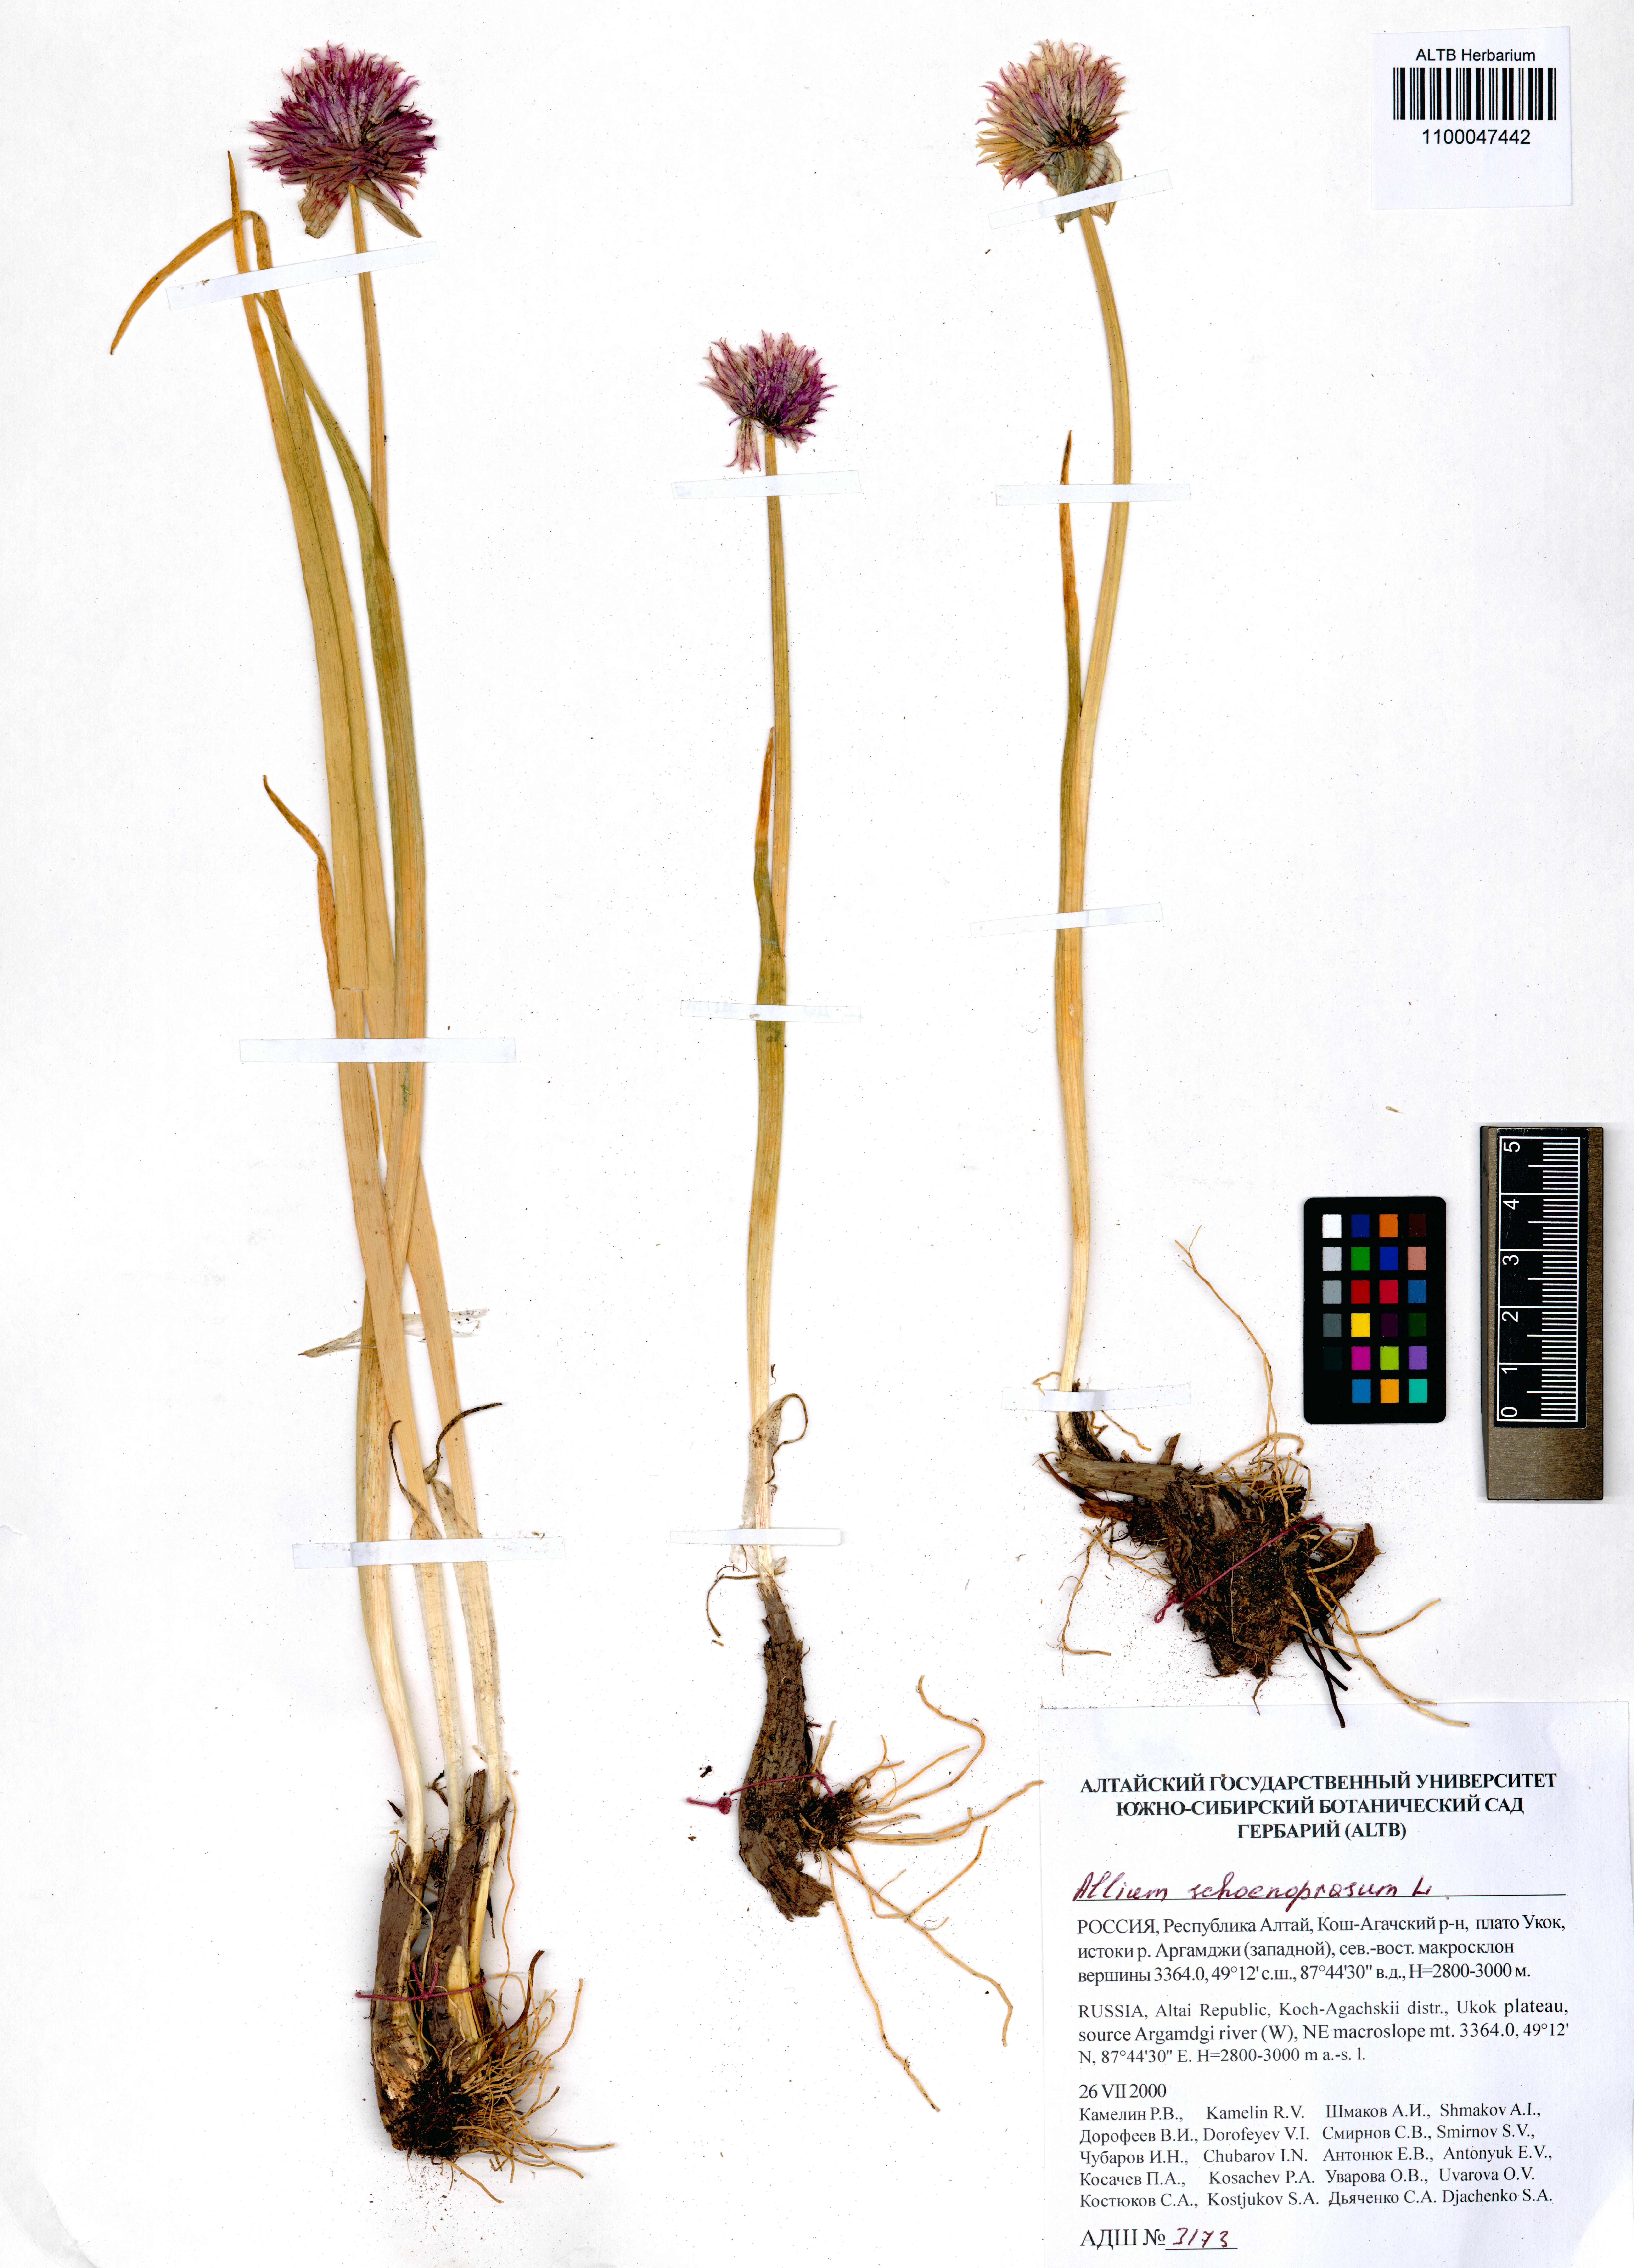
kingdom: Plantae
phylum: Tracheophyta
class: Liliopsida
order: Asparagales
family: Amaryllidaceae
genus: Allium
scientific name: Allium schoenoprasum
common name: Chives
